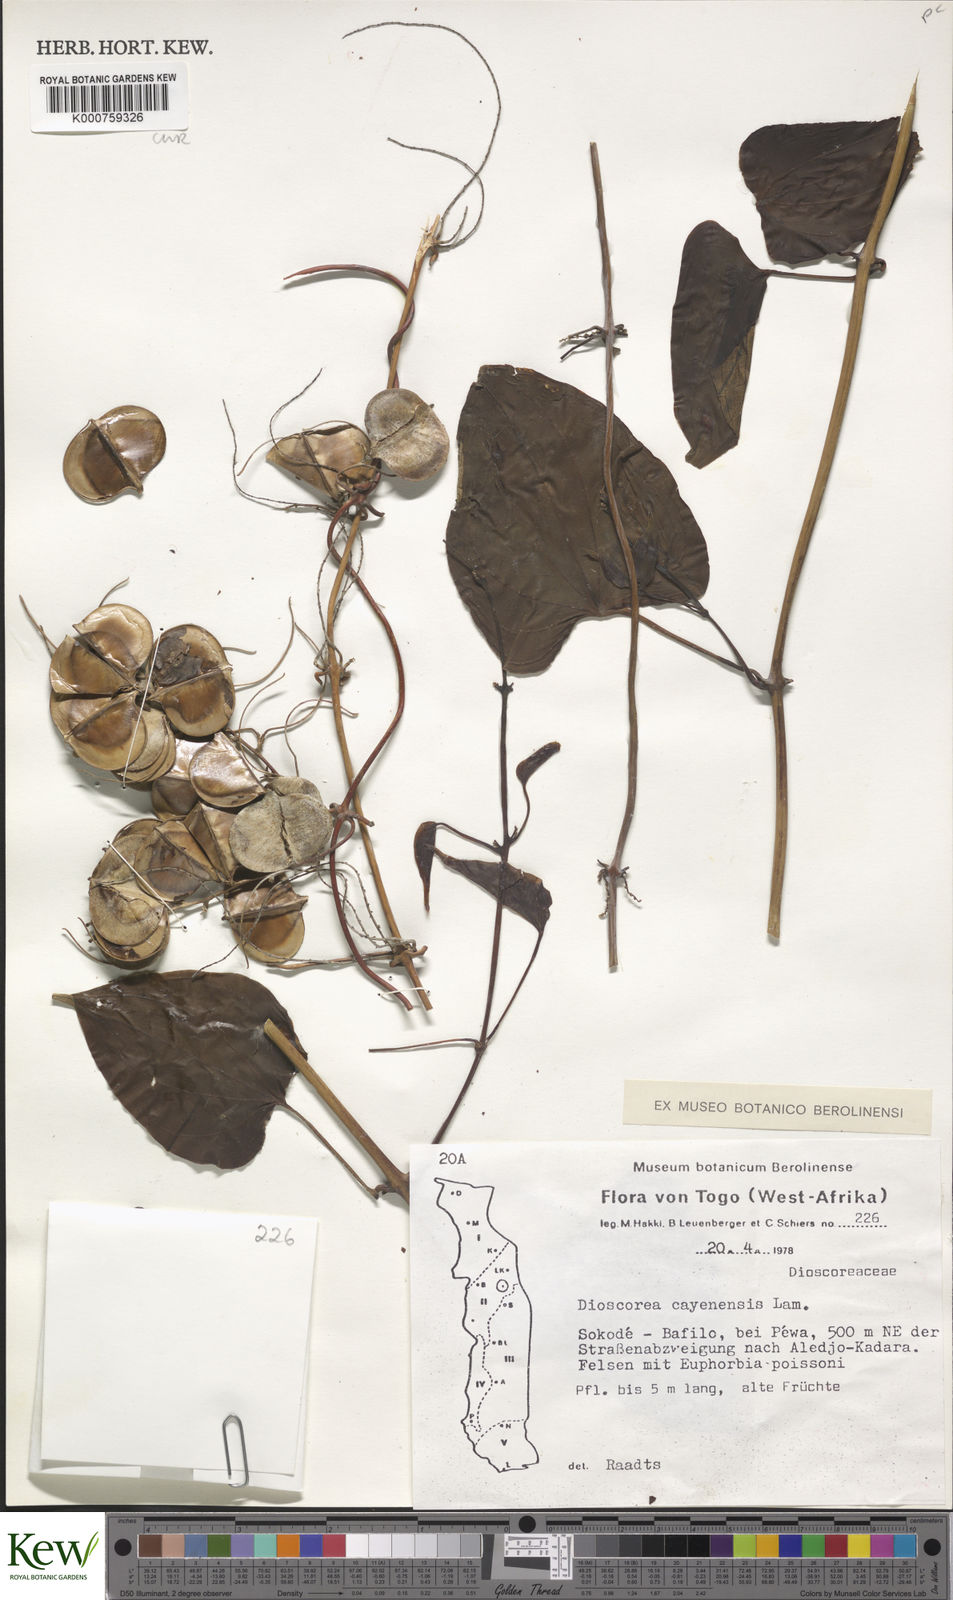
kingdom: Plantae
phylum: Tracheophyta
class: Liliopsida
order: Dioscoreales
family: Dioscoreaceae
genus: Dioscorea
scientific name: Dioscorea cayenensis
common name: Attoto yam
